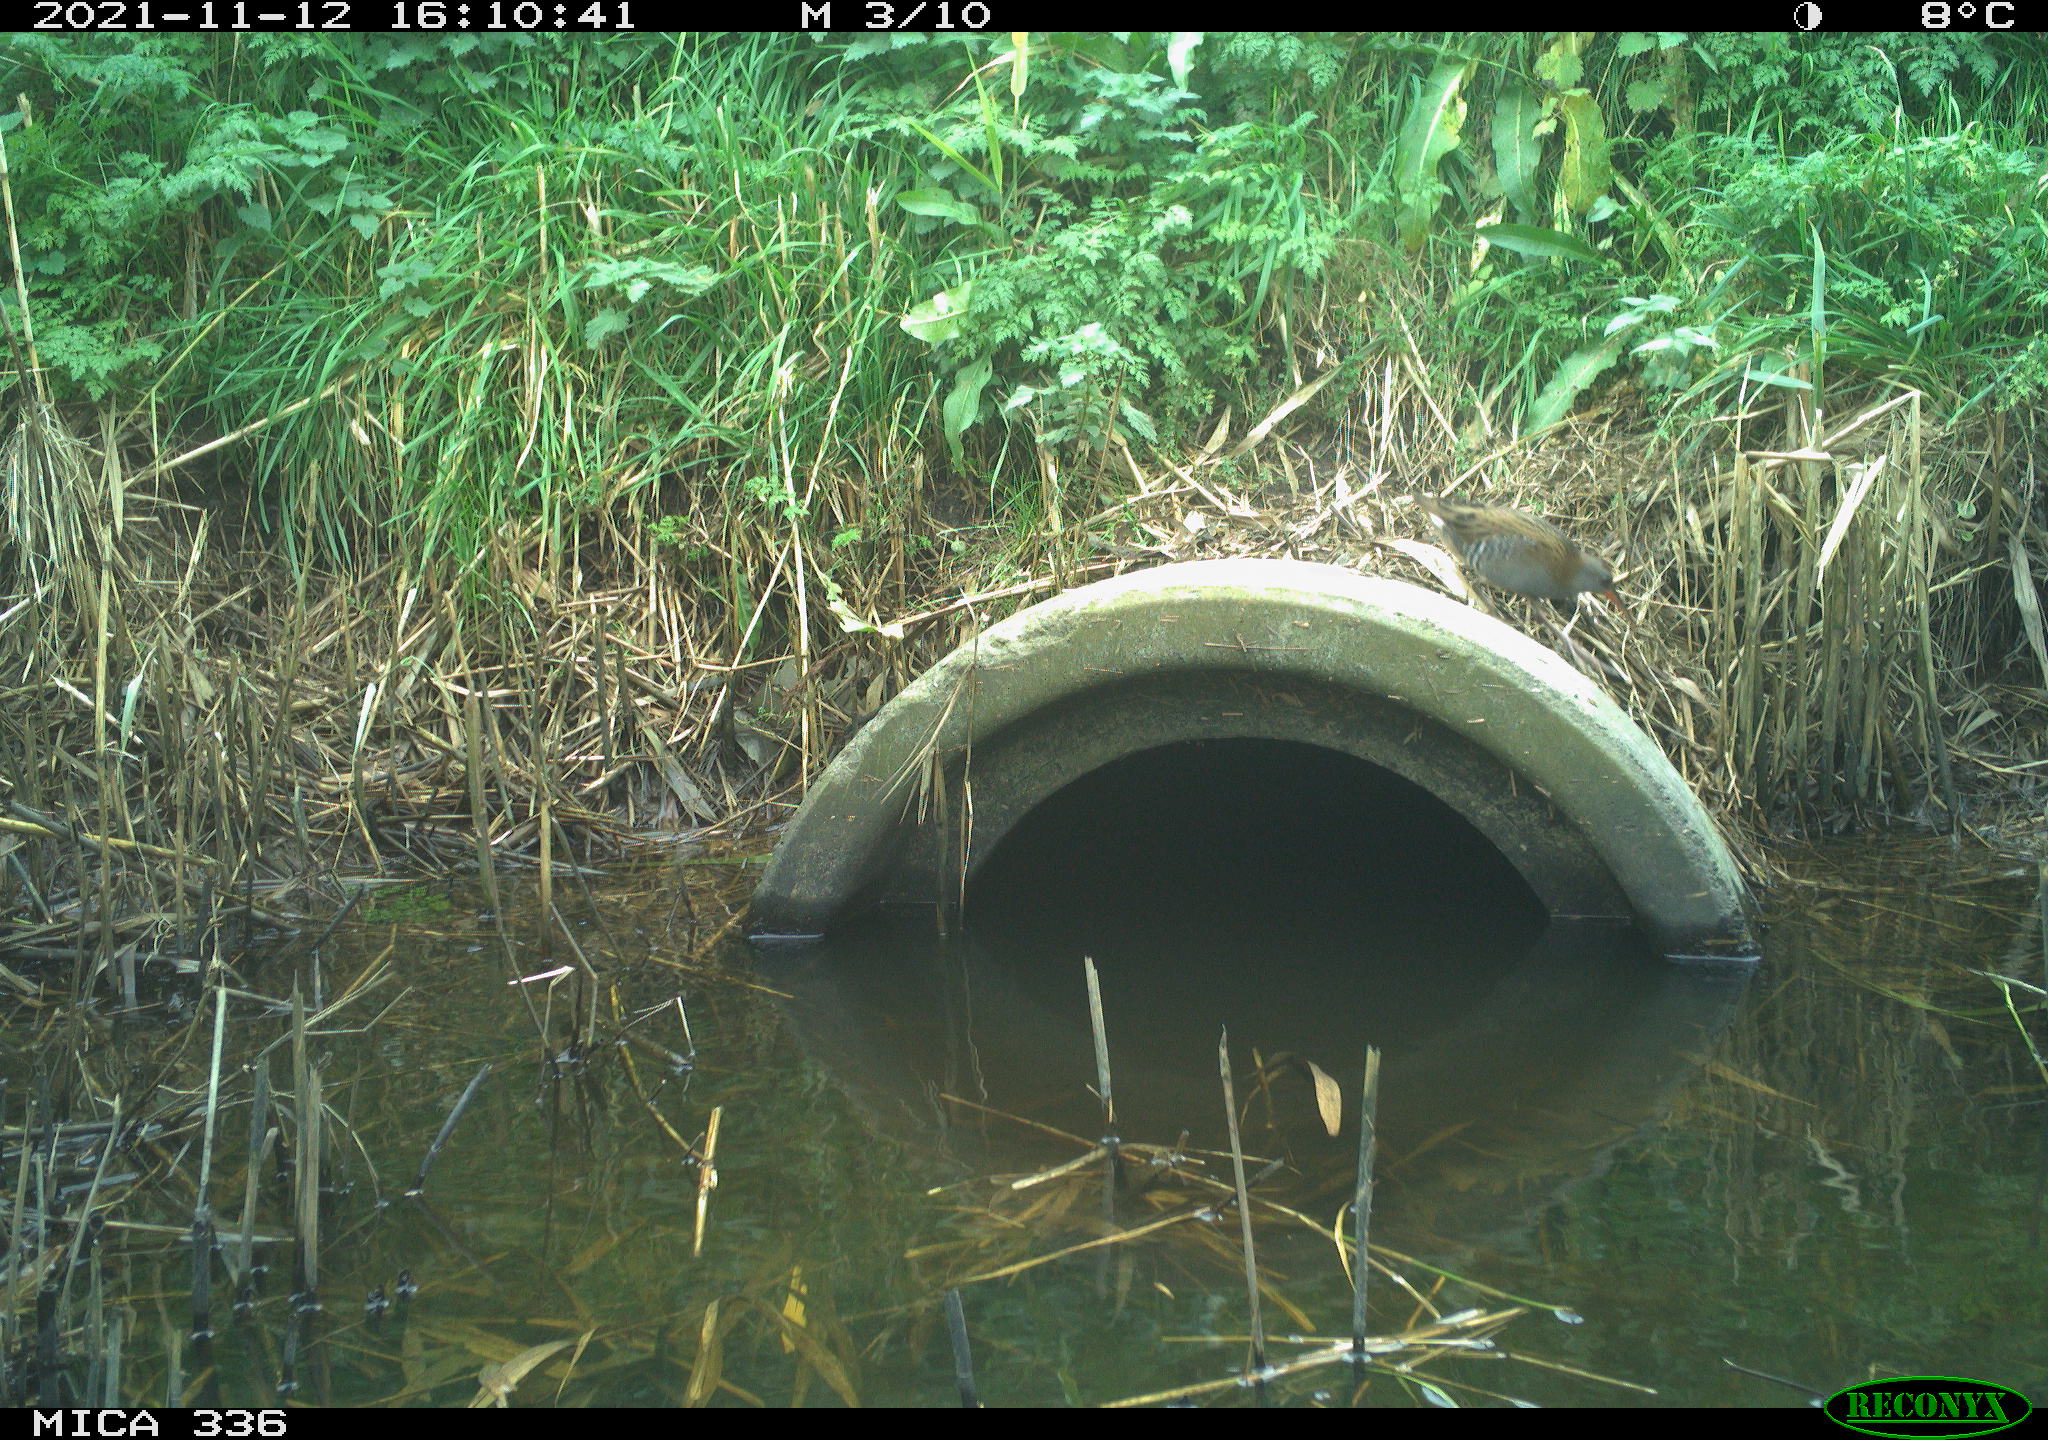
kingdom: Animalia
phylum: Chordata
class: Aves
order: Gruiformes
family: Rallidae
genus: Gallinula
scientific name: Gallinula chloropus
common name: Common moorhen
